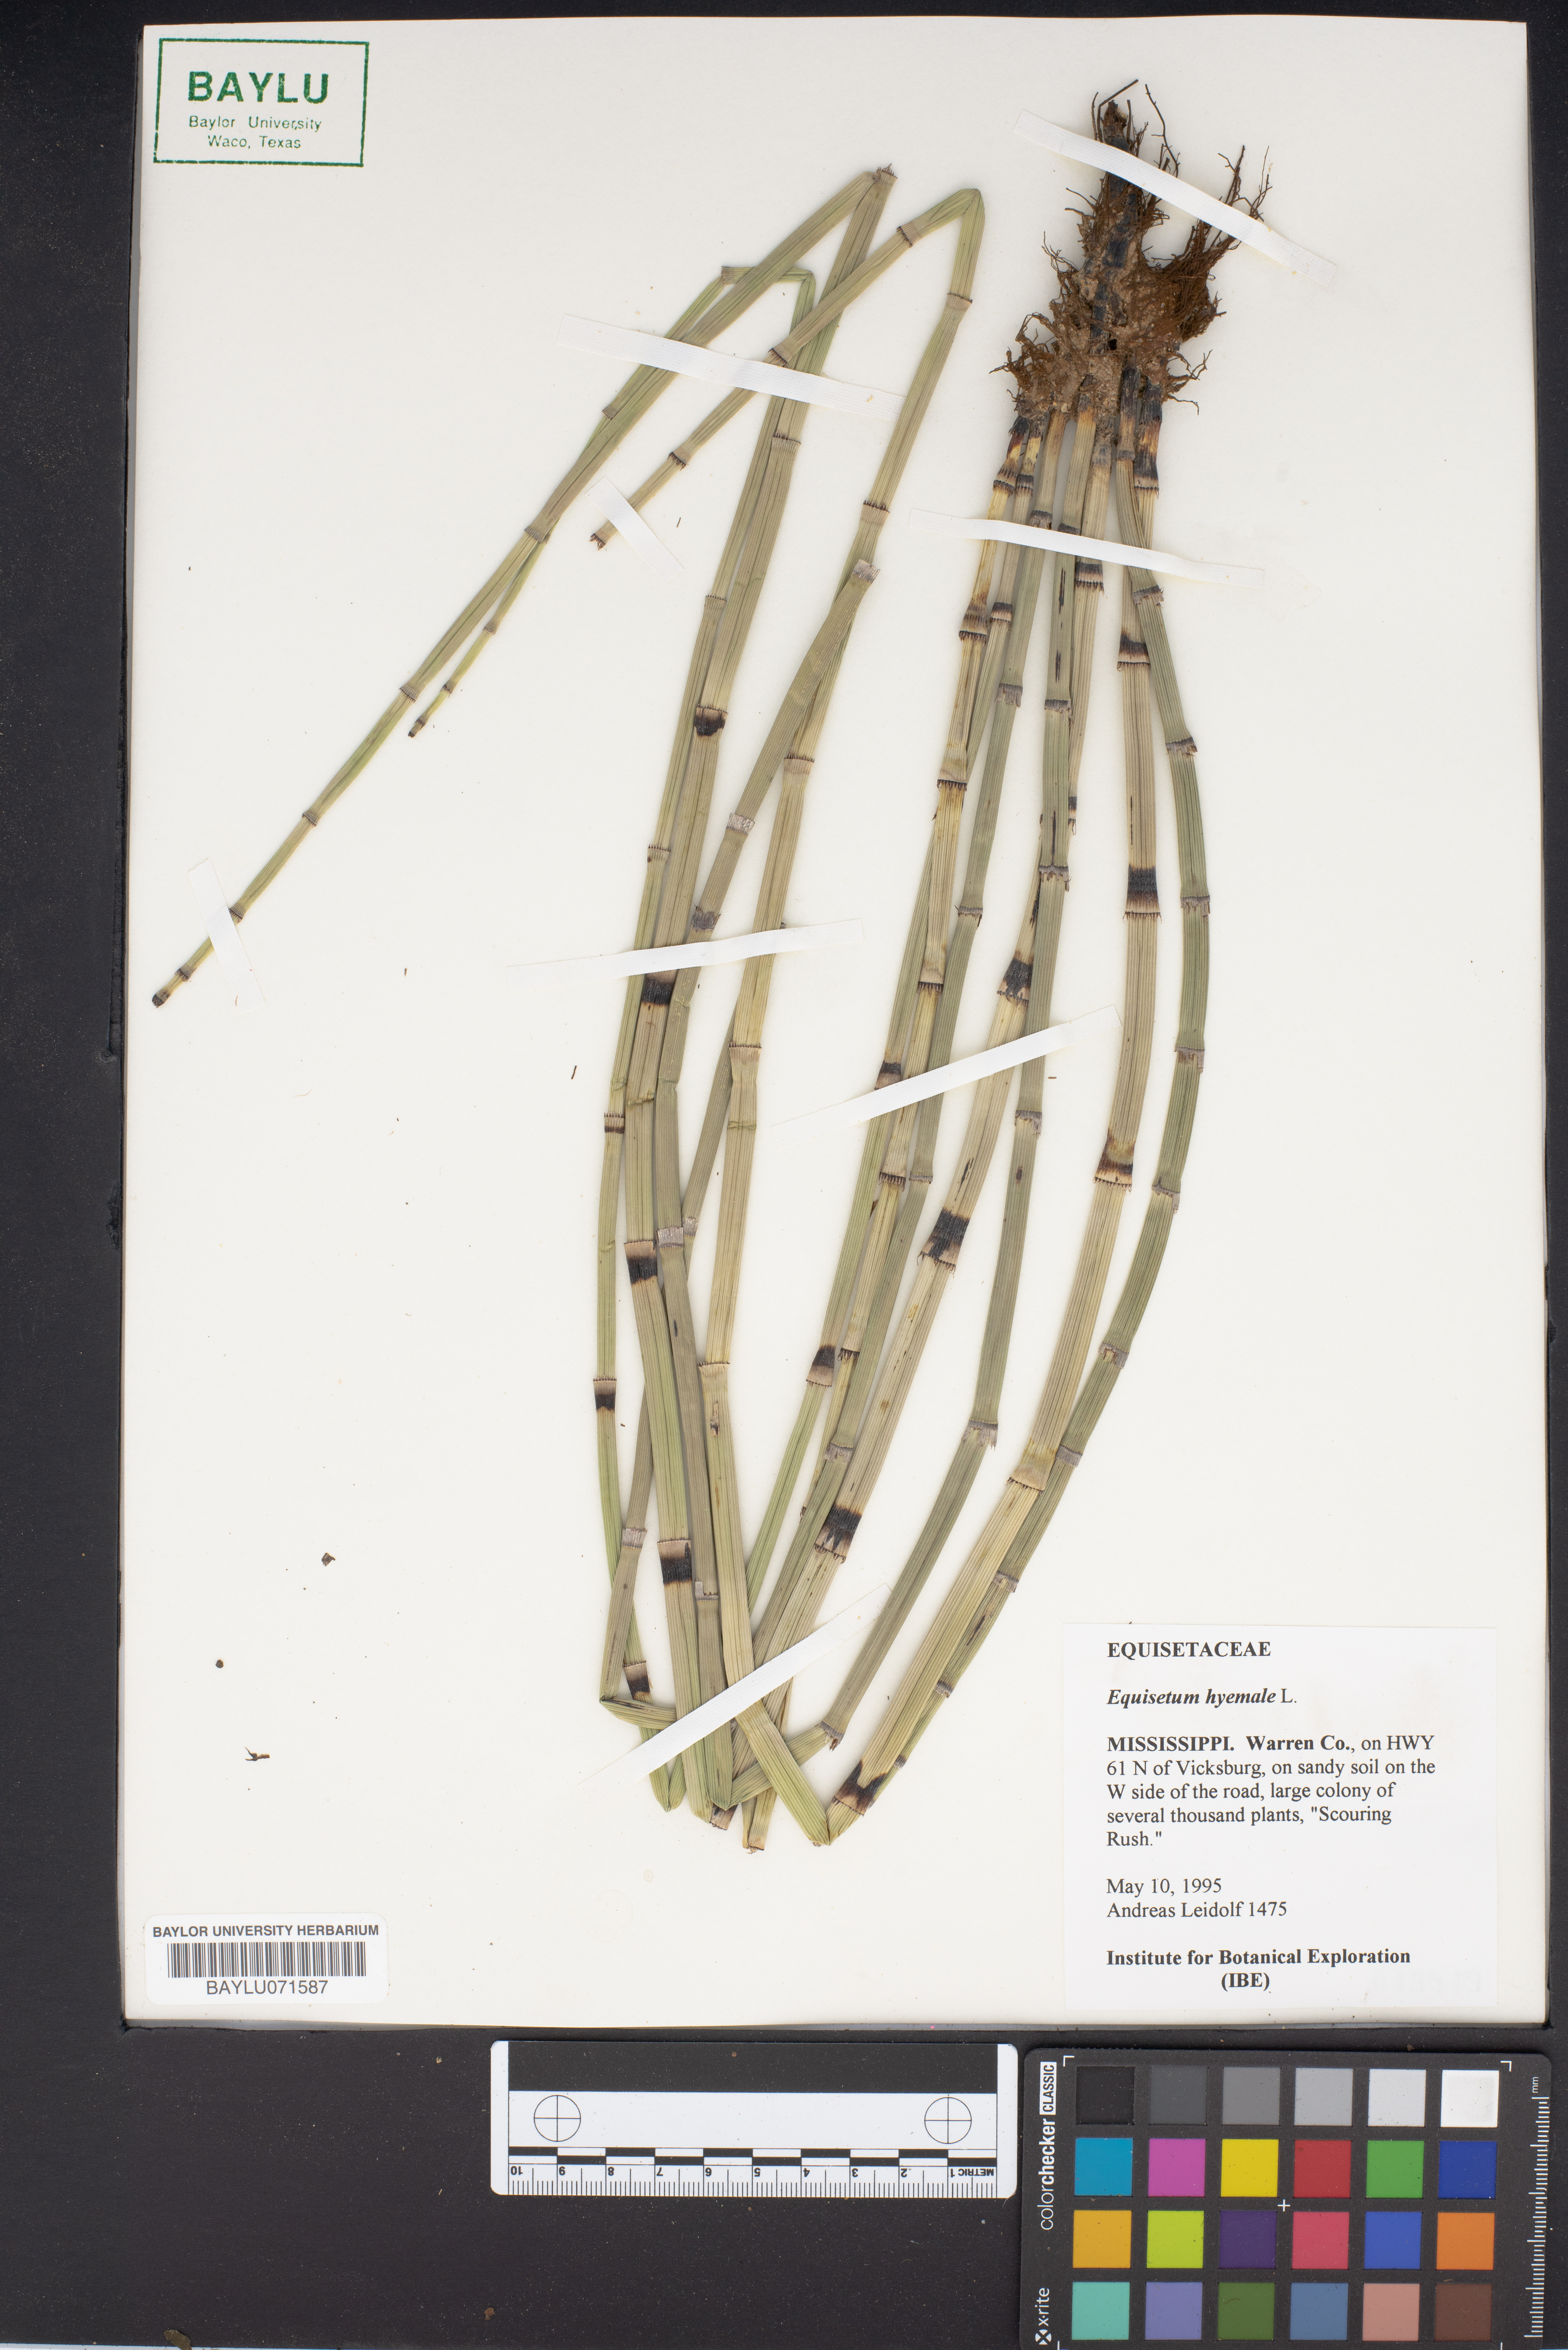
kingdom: Plantae
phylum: Tracheophyta
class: Polypodiopsida
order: Equisetales
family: Equisetaceae
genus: Equisetum
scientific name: Equisetum hyemale
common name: Rough horsetail
